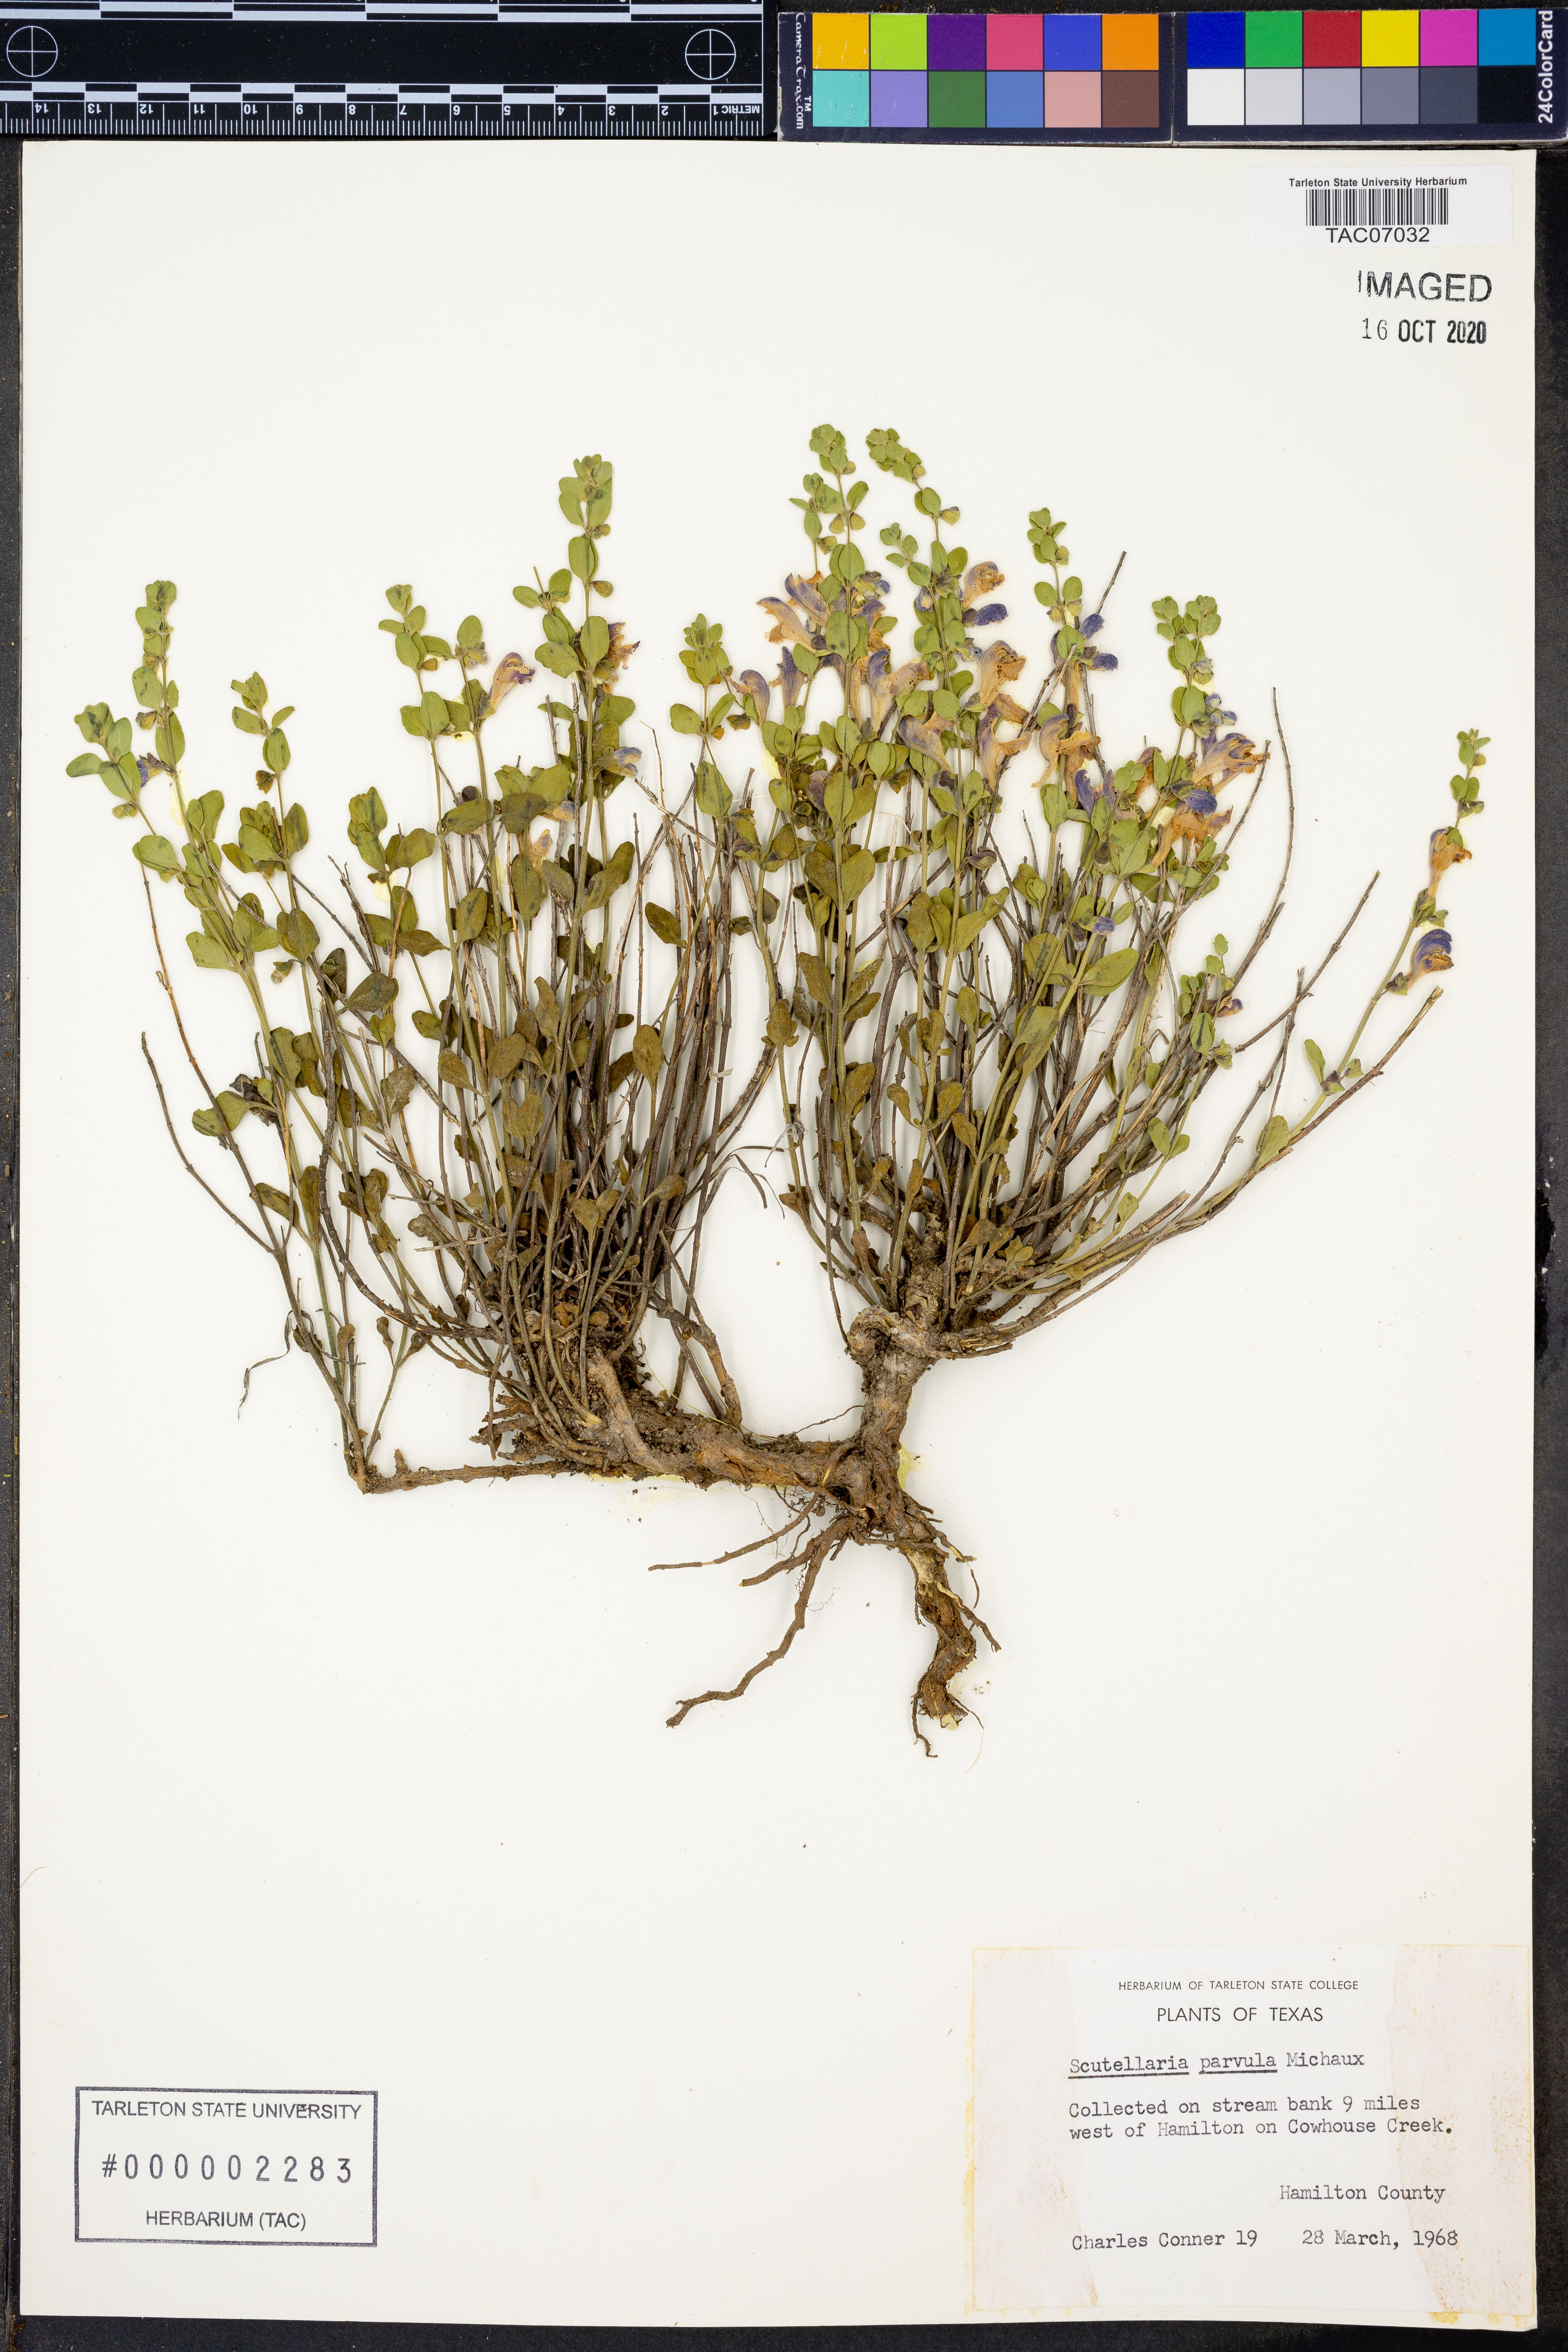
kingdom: Plantae
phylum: Tracheophyta
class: Magnoliopsida
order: Lamiales
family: Lamiaceae
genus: Scutellaria
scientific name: Scutellaria parvula
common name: Little scullcap
